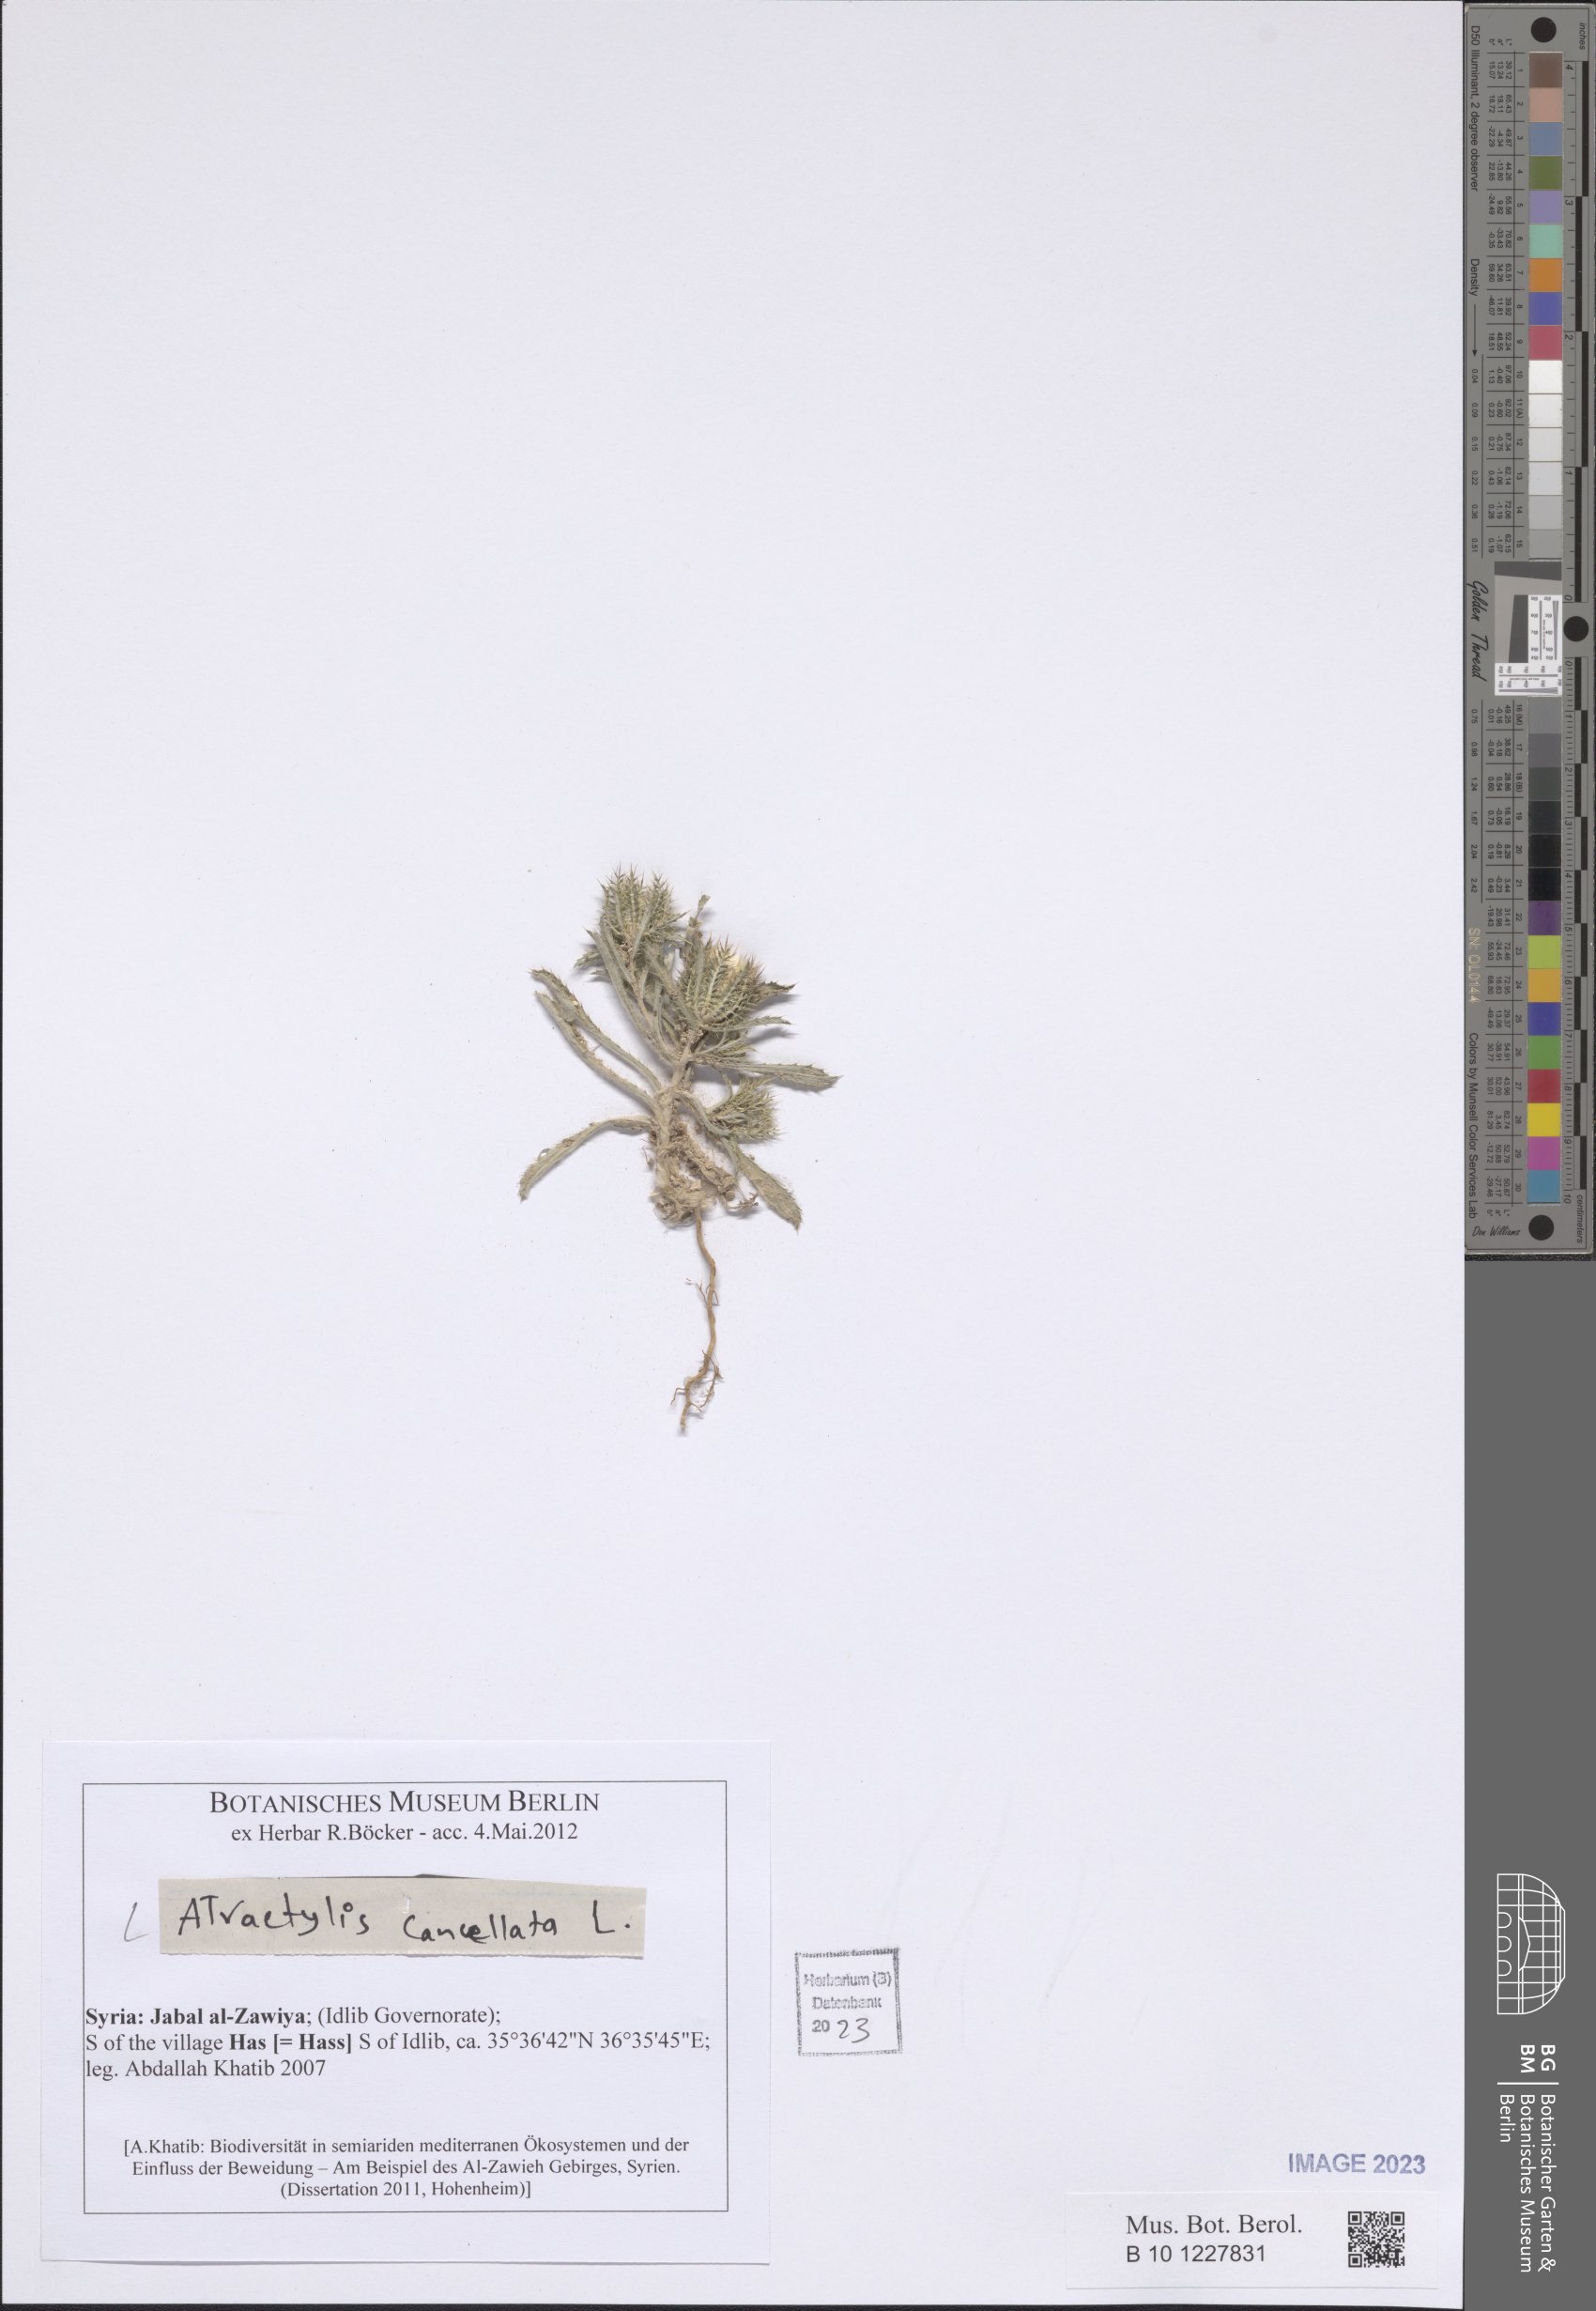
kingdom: Plantae
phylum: Tracheophyta
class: Magnoliopsida
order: Asterales
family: Asteraceae
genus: Atractylis
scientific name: Atractylis cancellata
